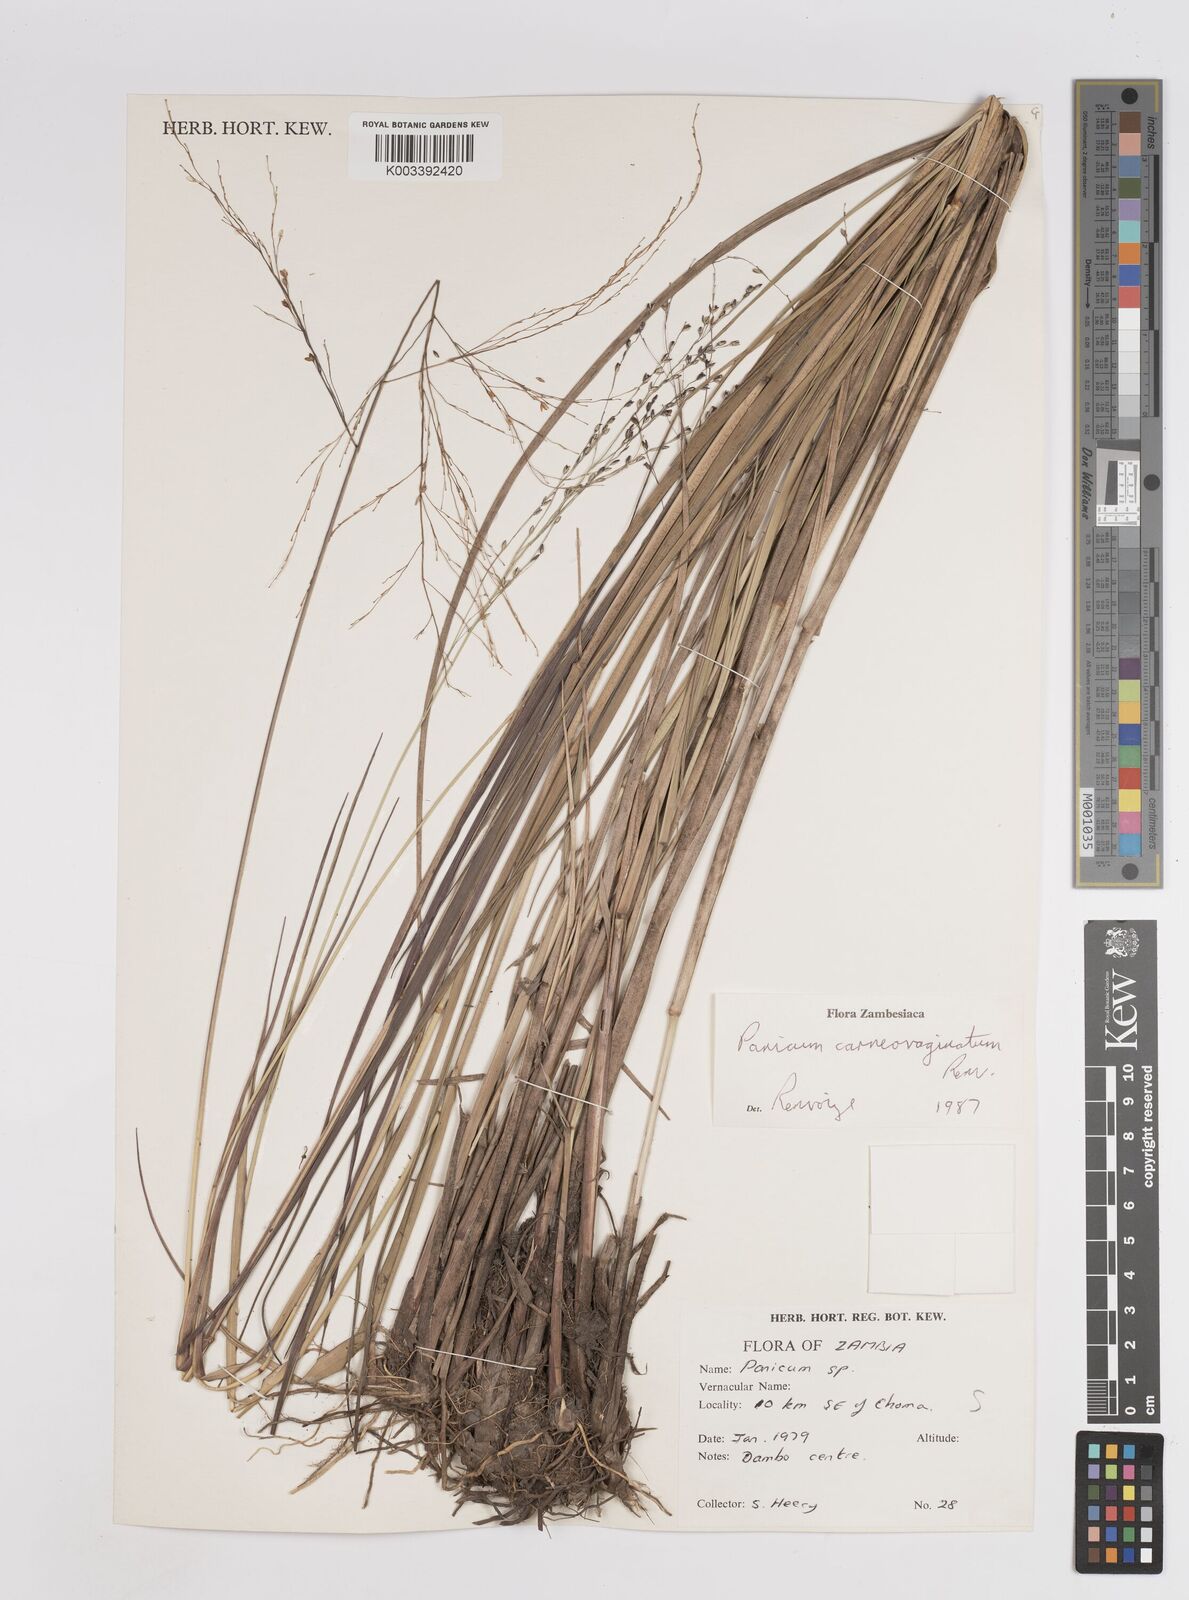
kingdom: Plantae
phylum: Tracheophyta
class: Liliopsida
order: Poales
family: Poaceae
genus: Panicum
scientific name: Panicum carneovaginatum
